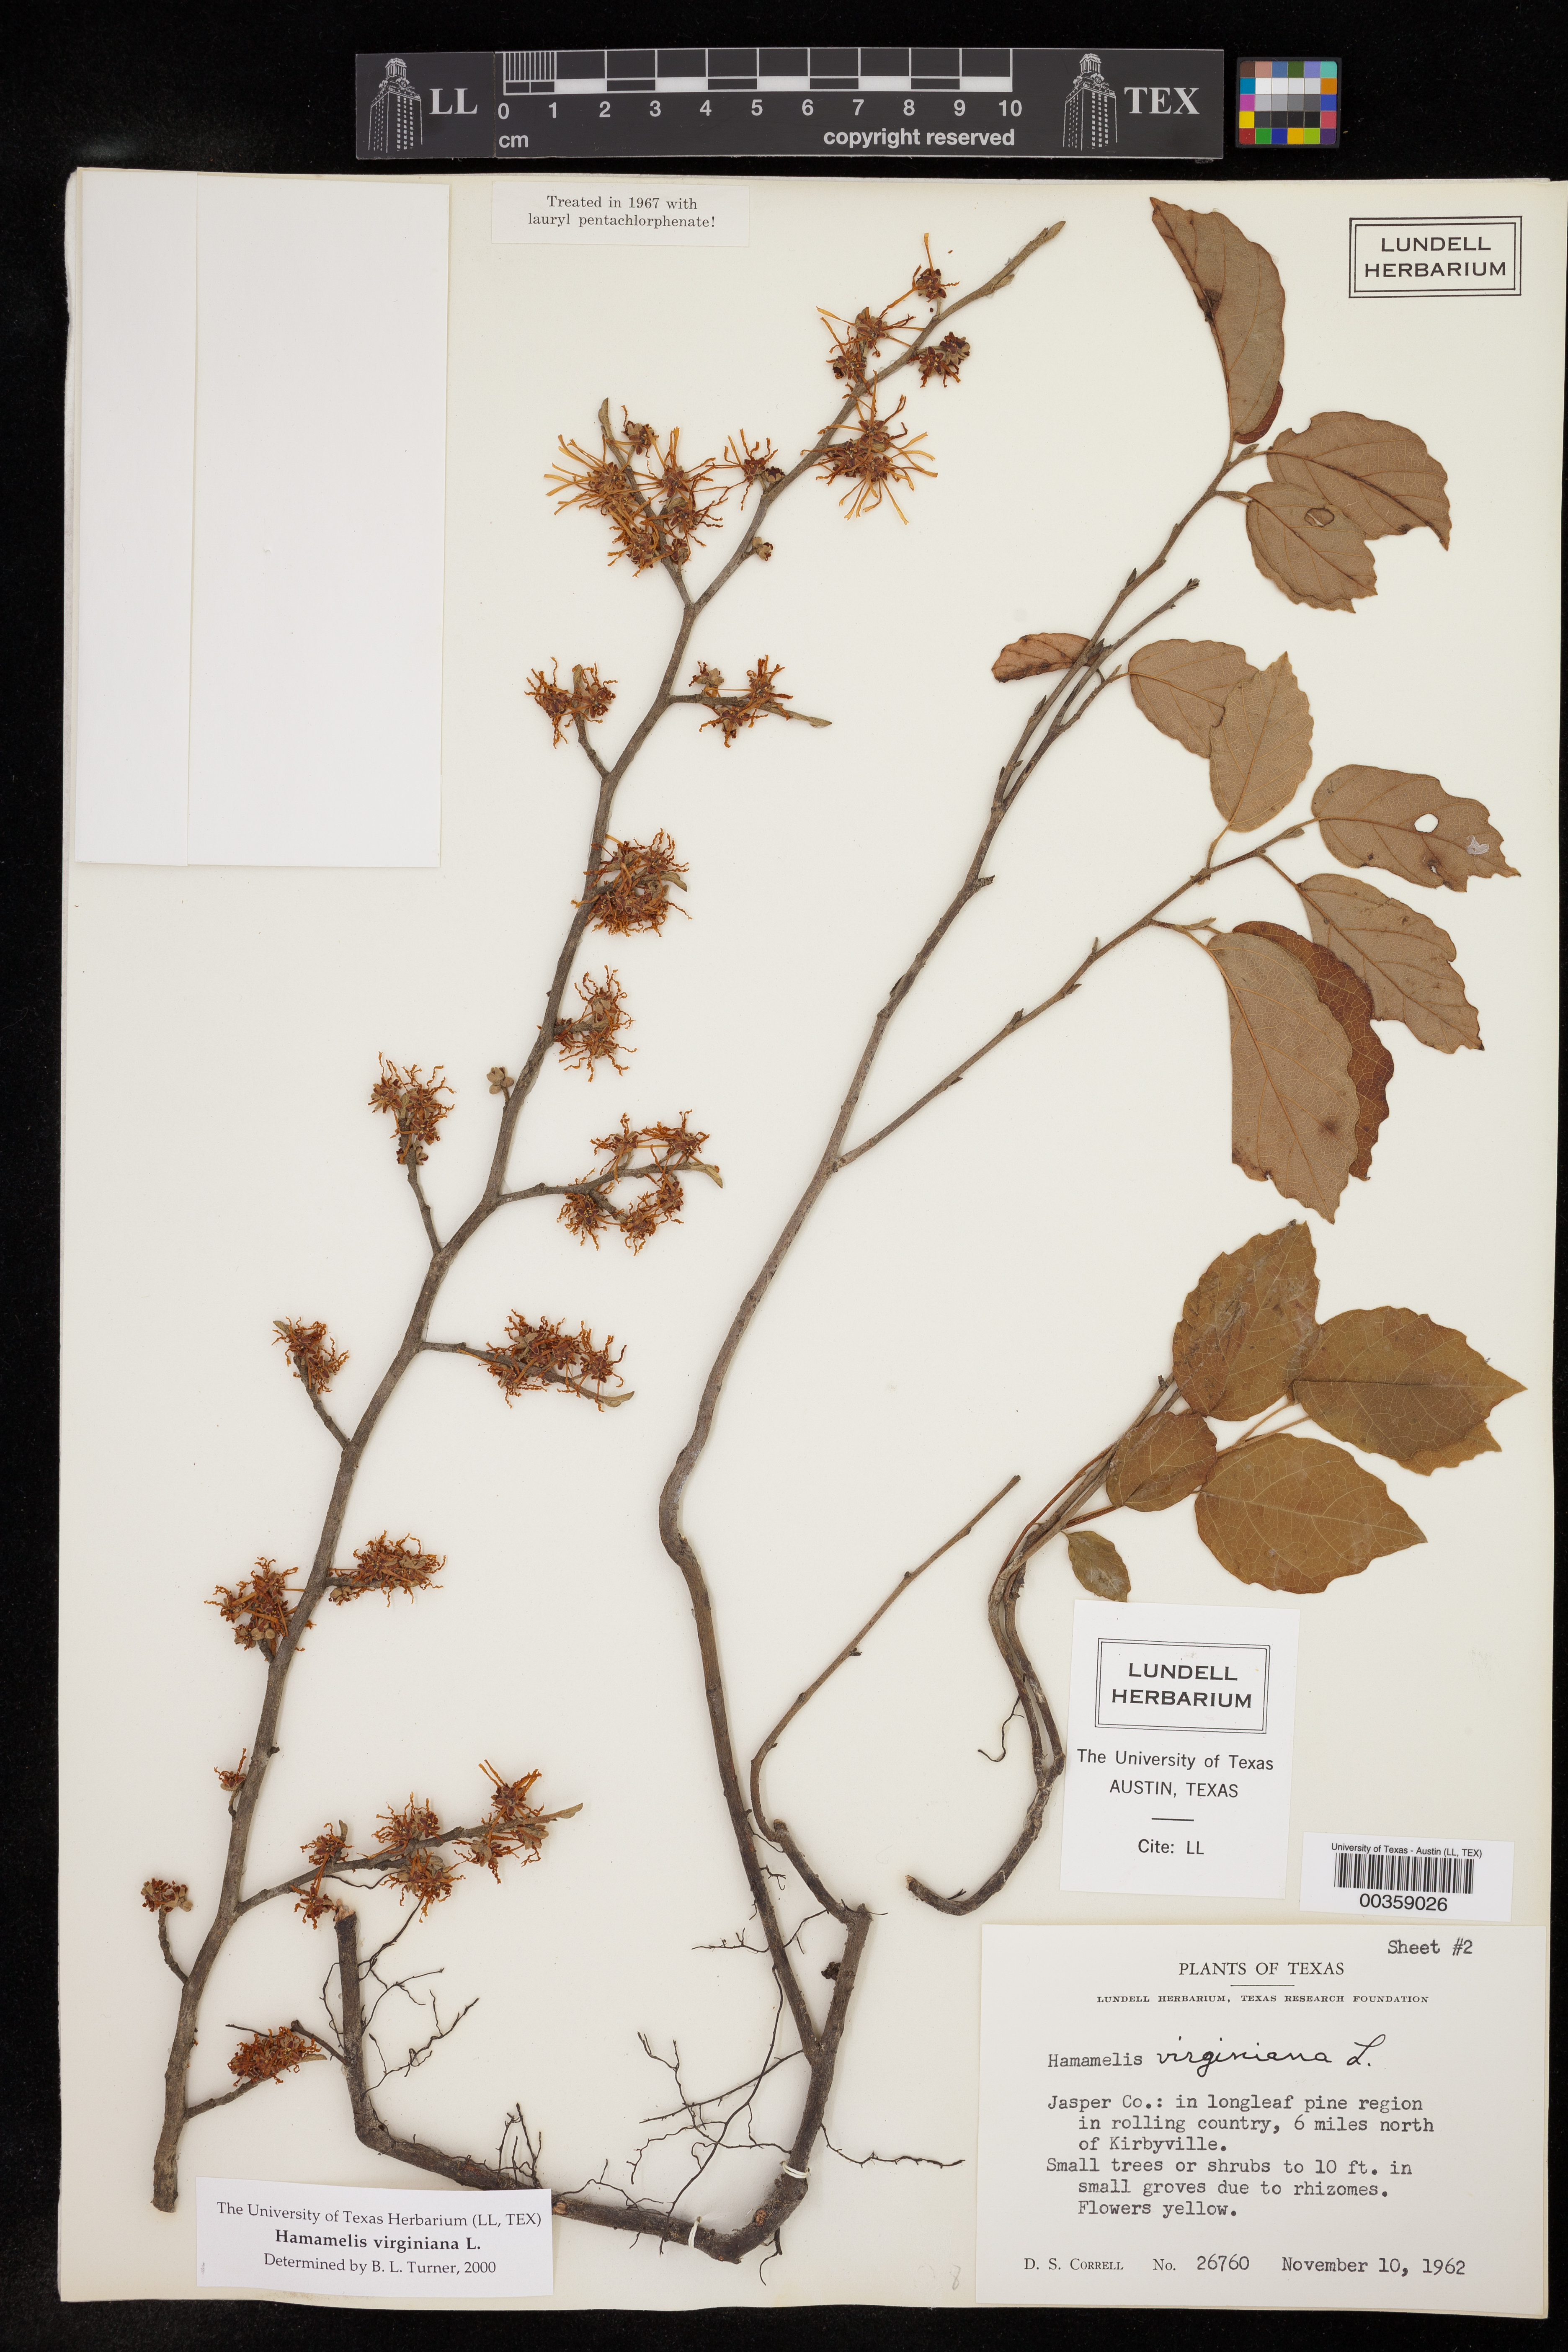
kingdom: Plantae
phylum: Tracheophyta
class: Magnoliopsida
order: Saxifragales
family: Hamamelidaceae
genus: Hamamelis
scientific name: Hamamelis virginiana
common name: Witch-hazel
